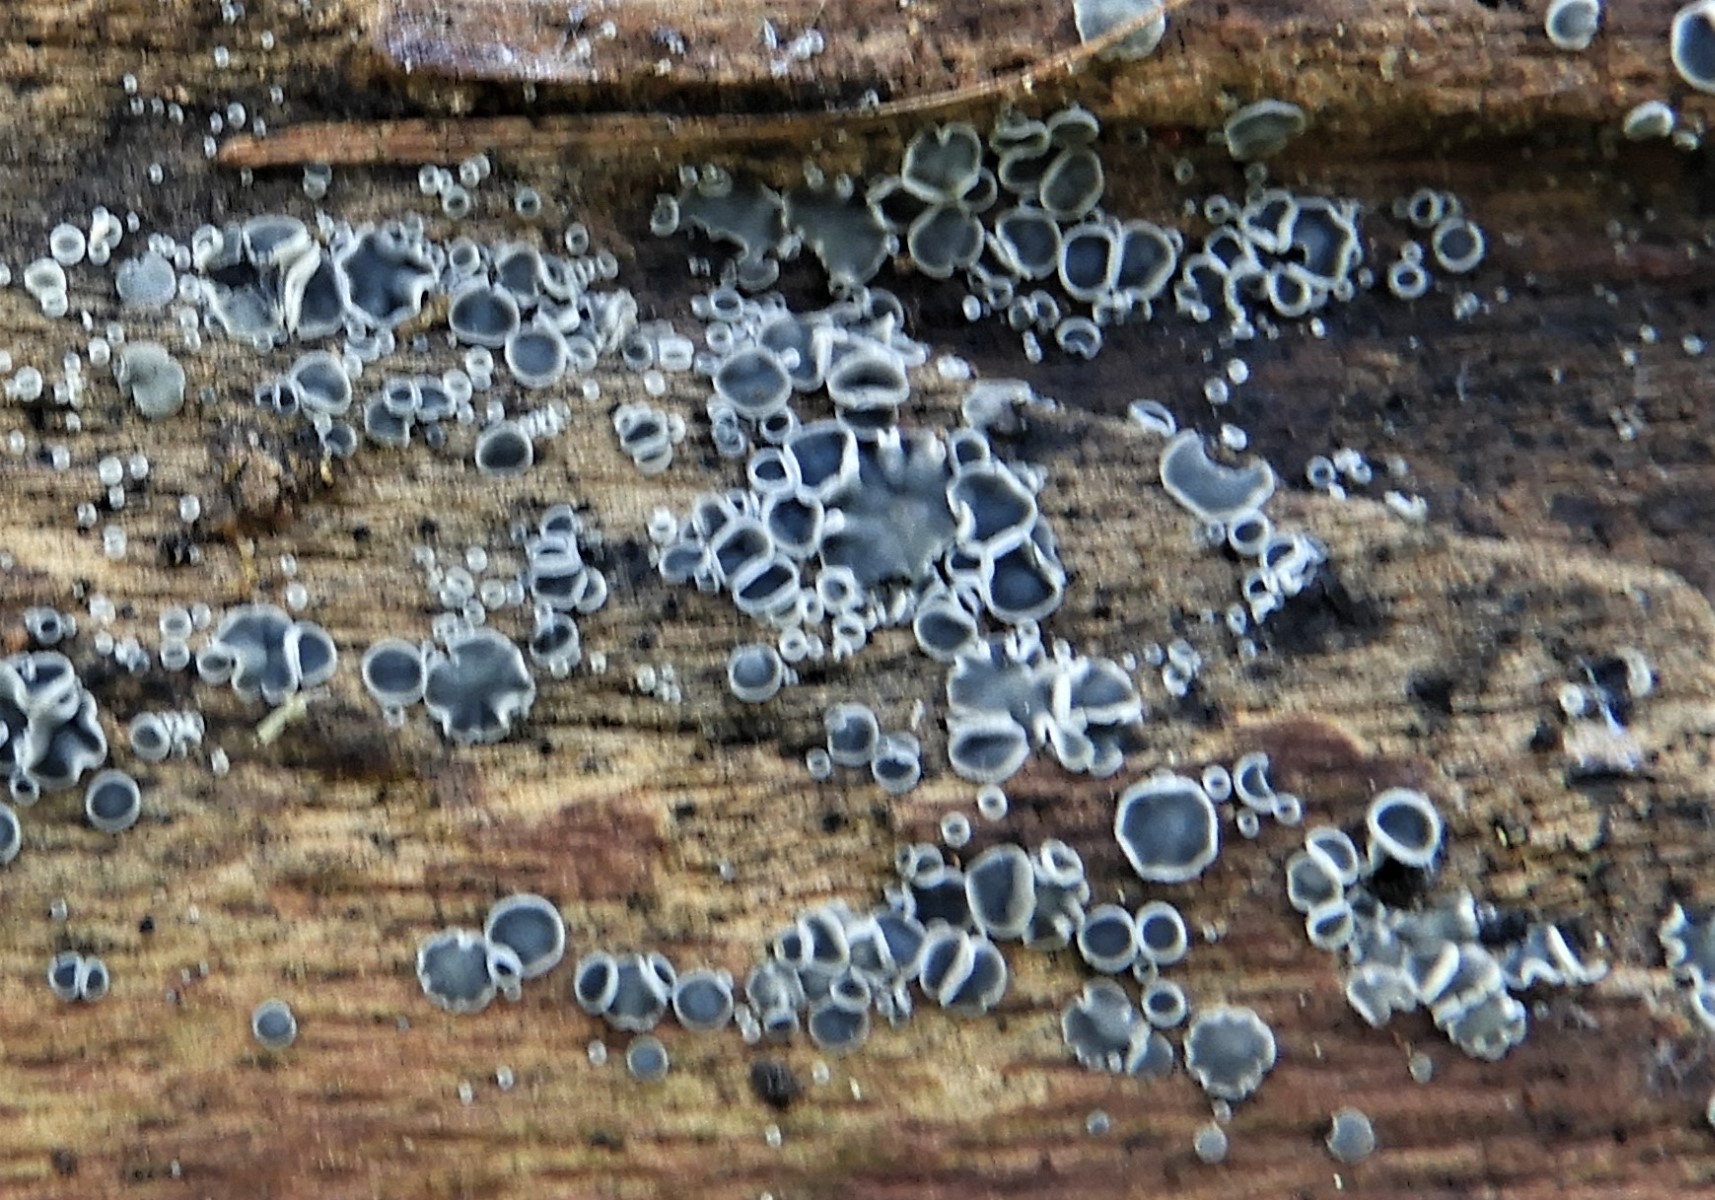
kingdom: Fungi
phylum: Ascomycota
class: Leotiomycetes
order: Helotiales
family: Mollisiaceae
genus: Mollisia
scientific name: Mollisia cinerea
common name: almindelig gråskive
